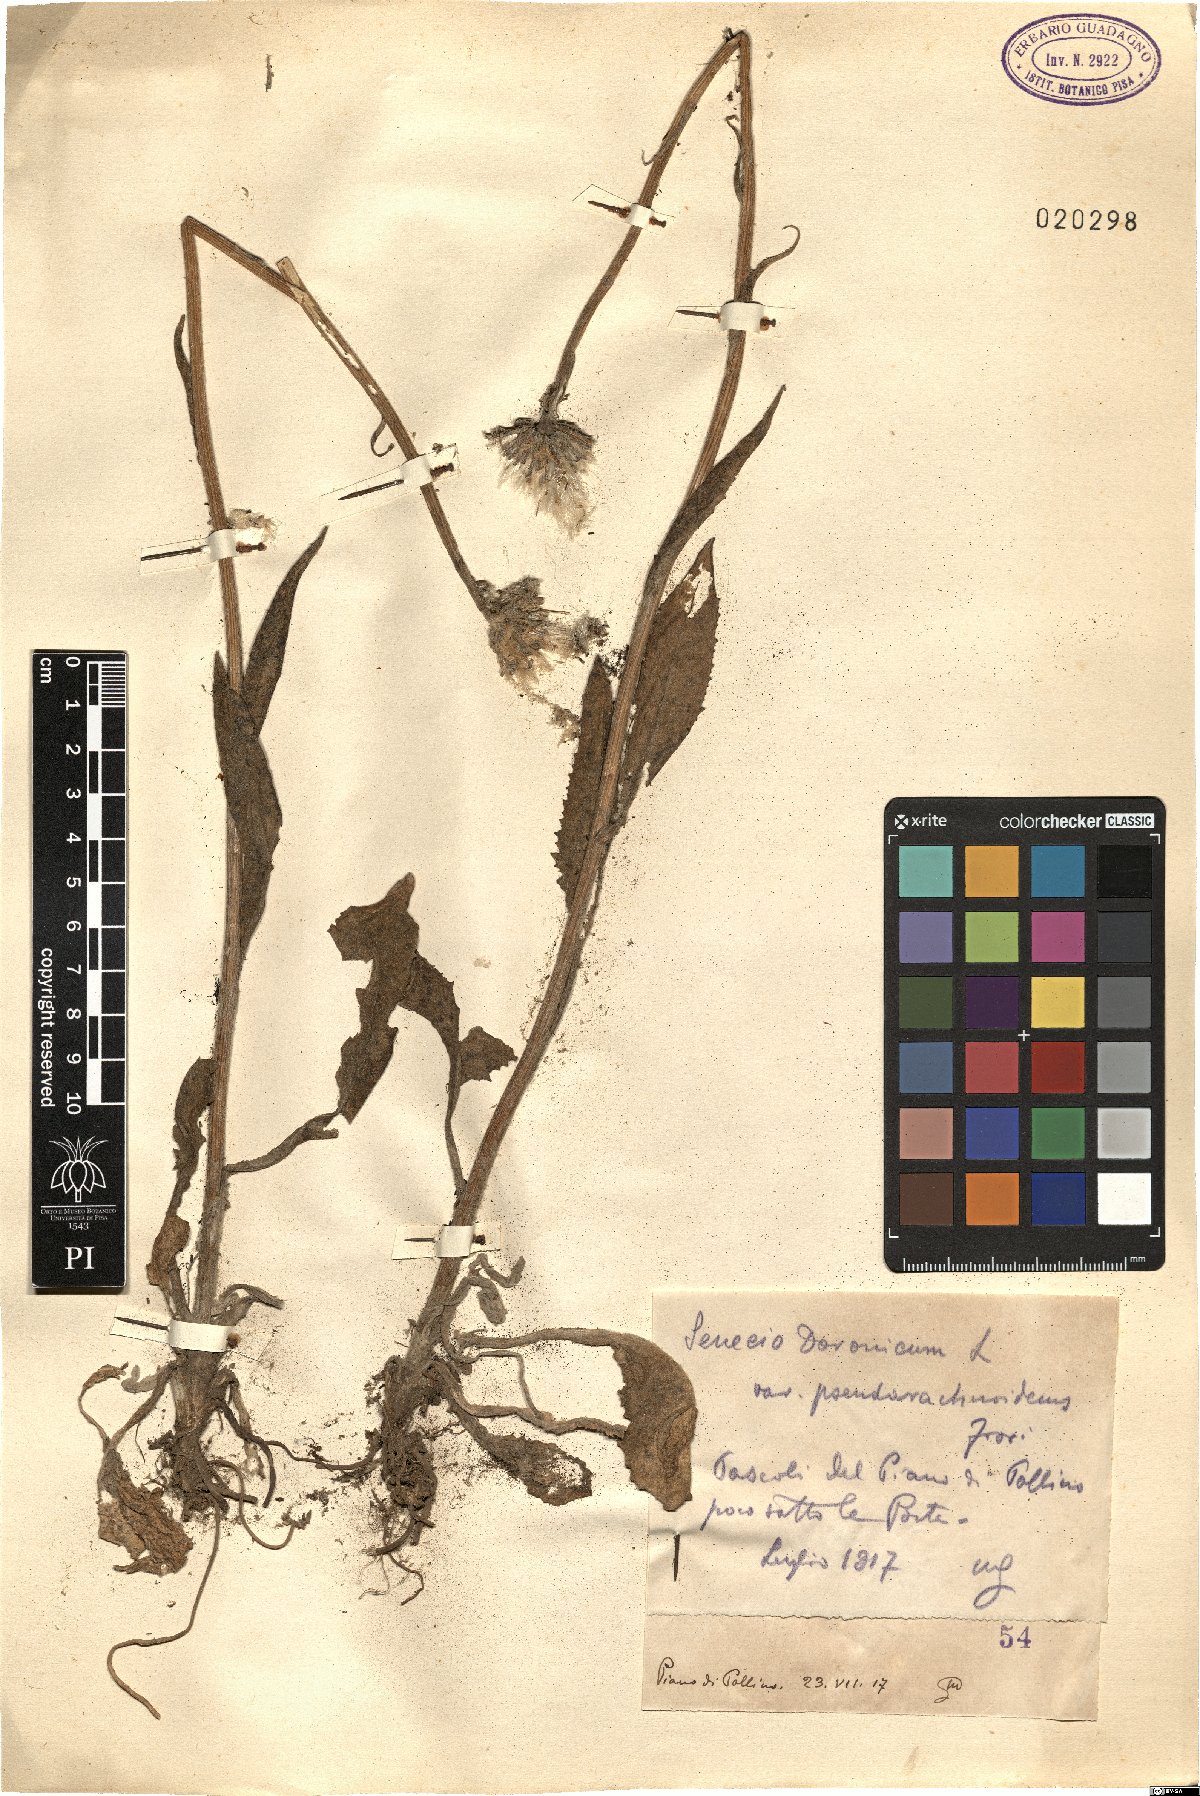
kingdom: Plantae
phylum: Tracheophyta
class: Magnoliopsida
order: Asterales
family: Asteraceae
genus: Senecio
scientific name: Senecio doronicum
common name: Chamois ragwort
